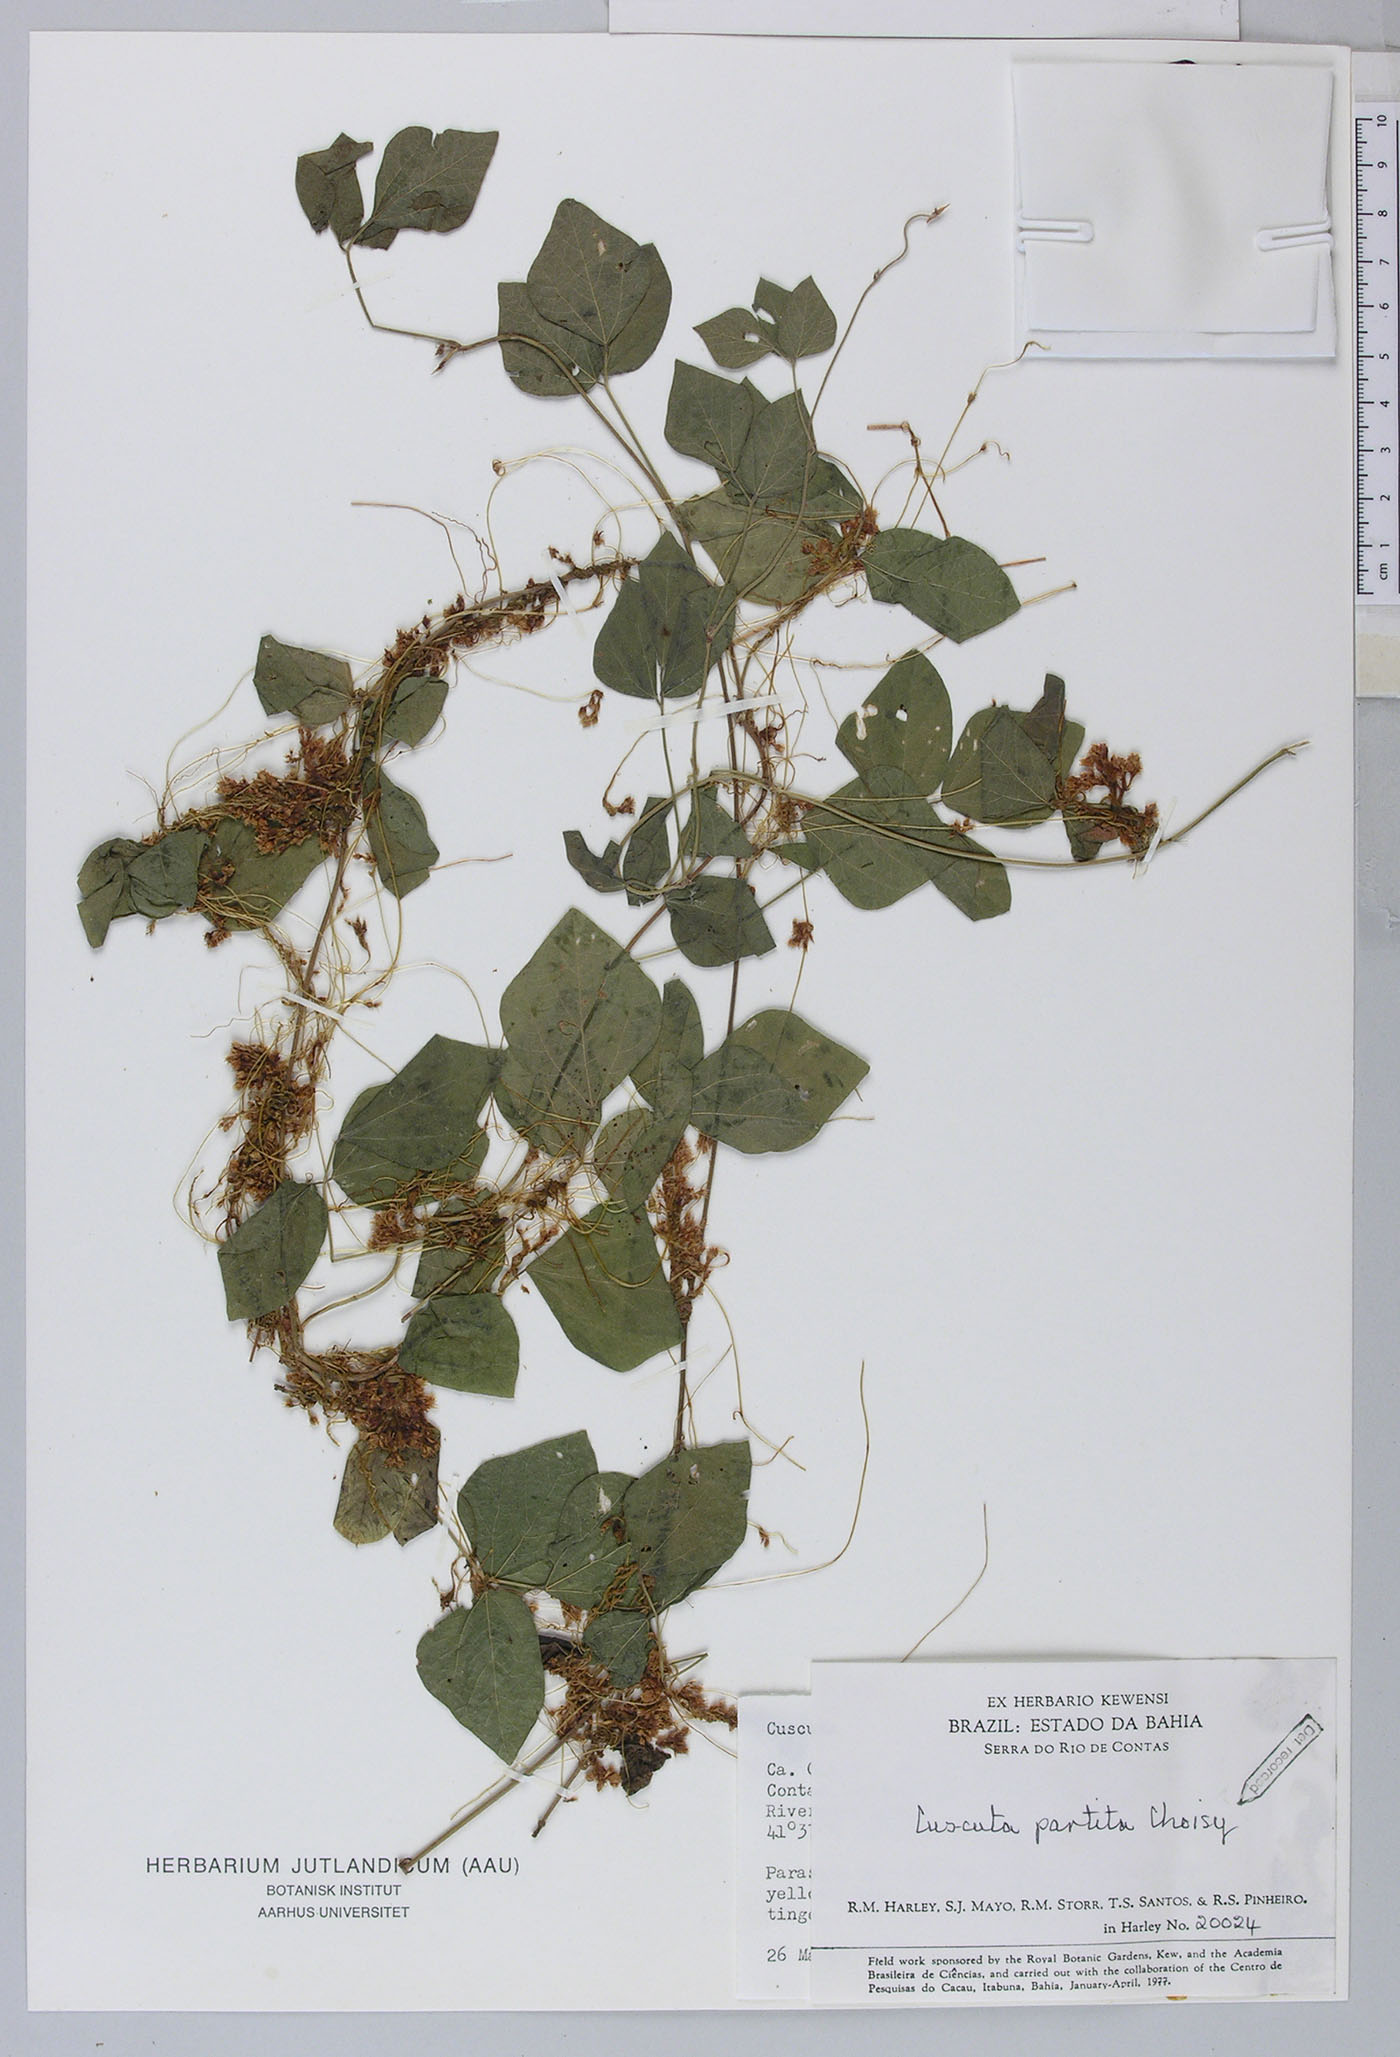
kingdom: Plantae
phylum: Tracheophyta
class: Magnoliopsida
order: Solanales
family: Convolvulaceae
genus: Cuscuta
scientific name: Cuscuta partita
